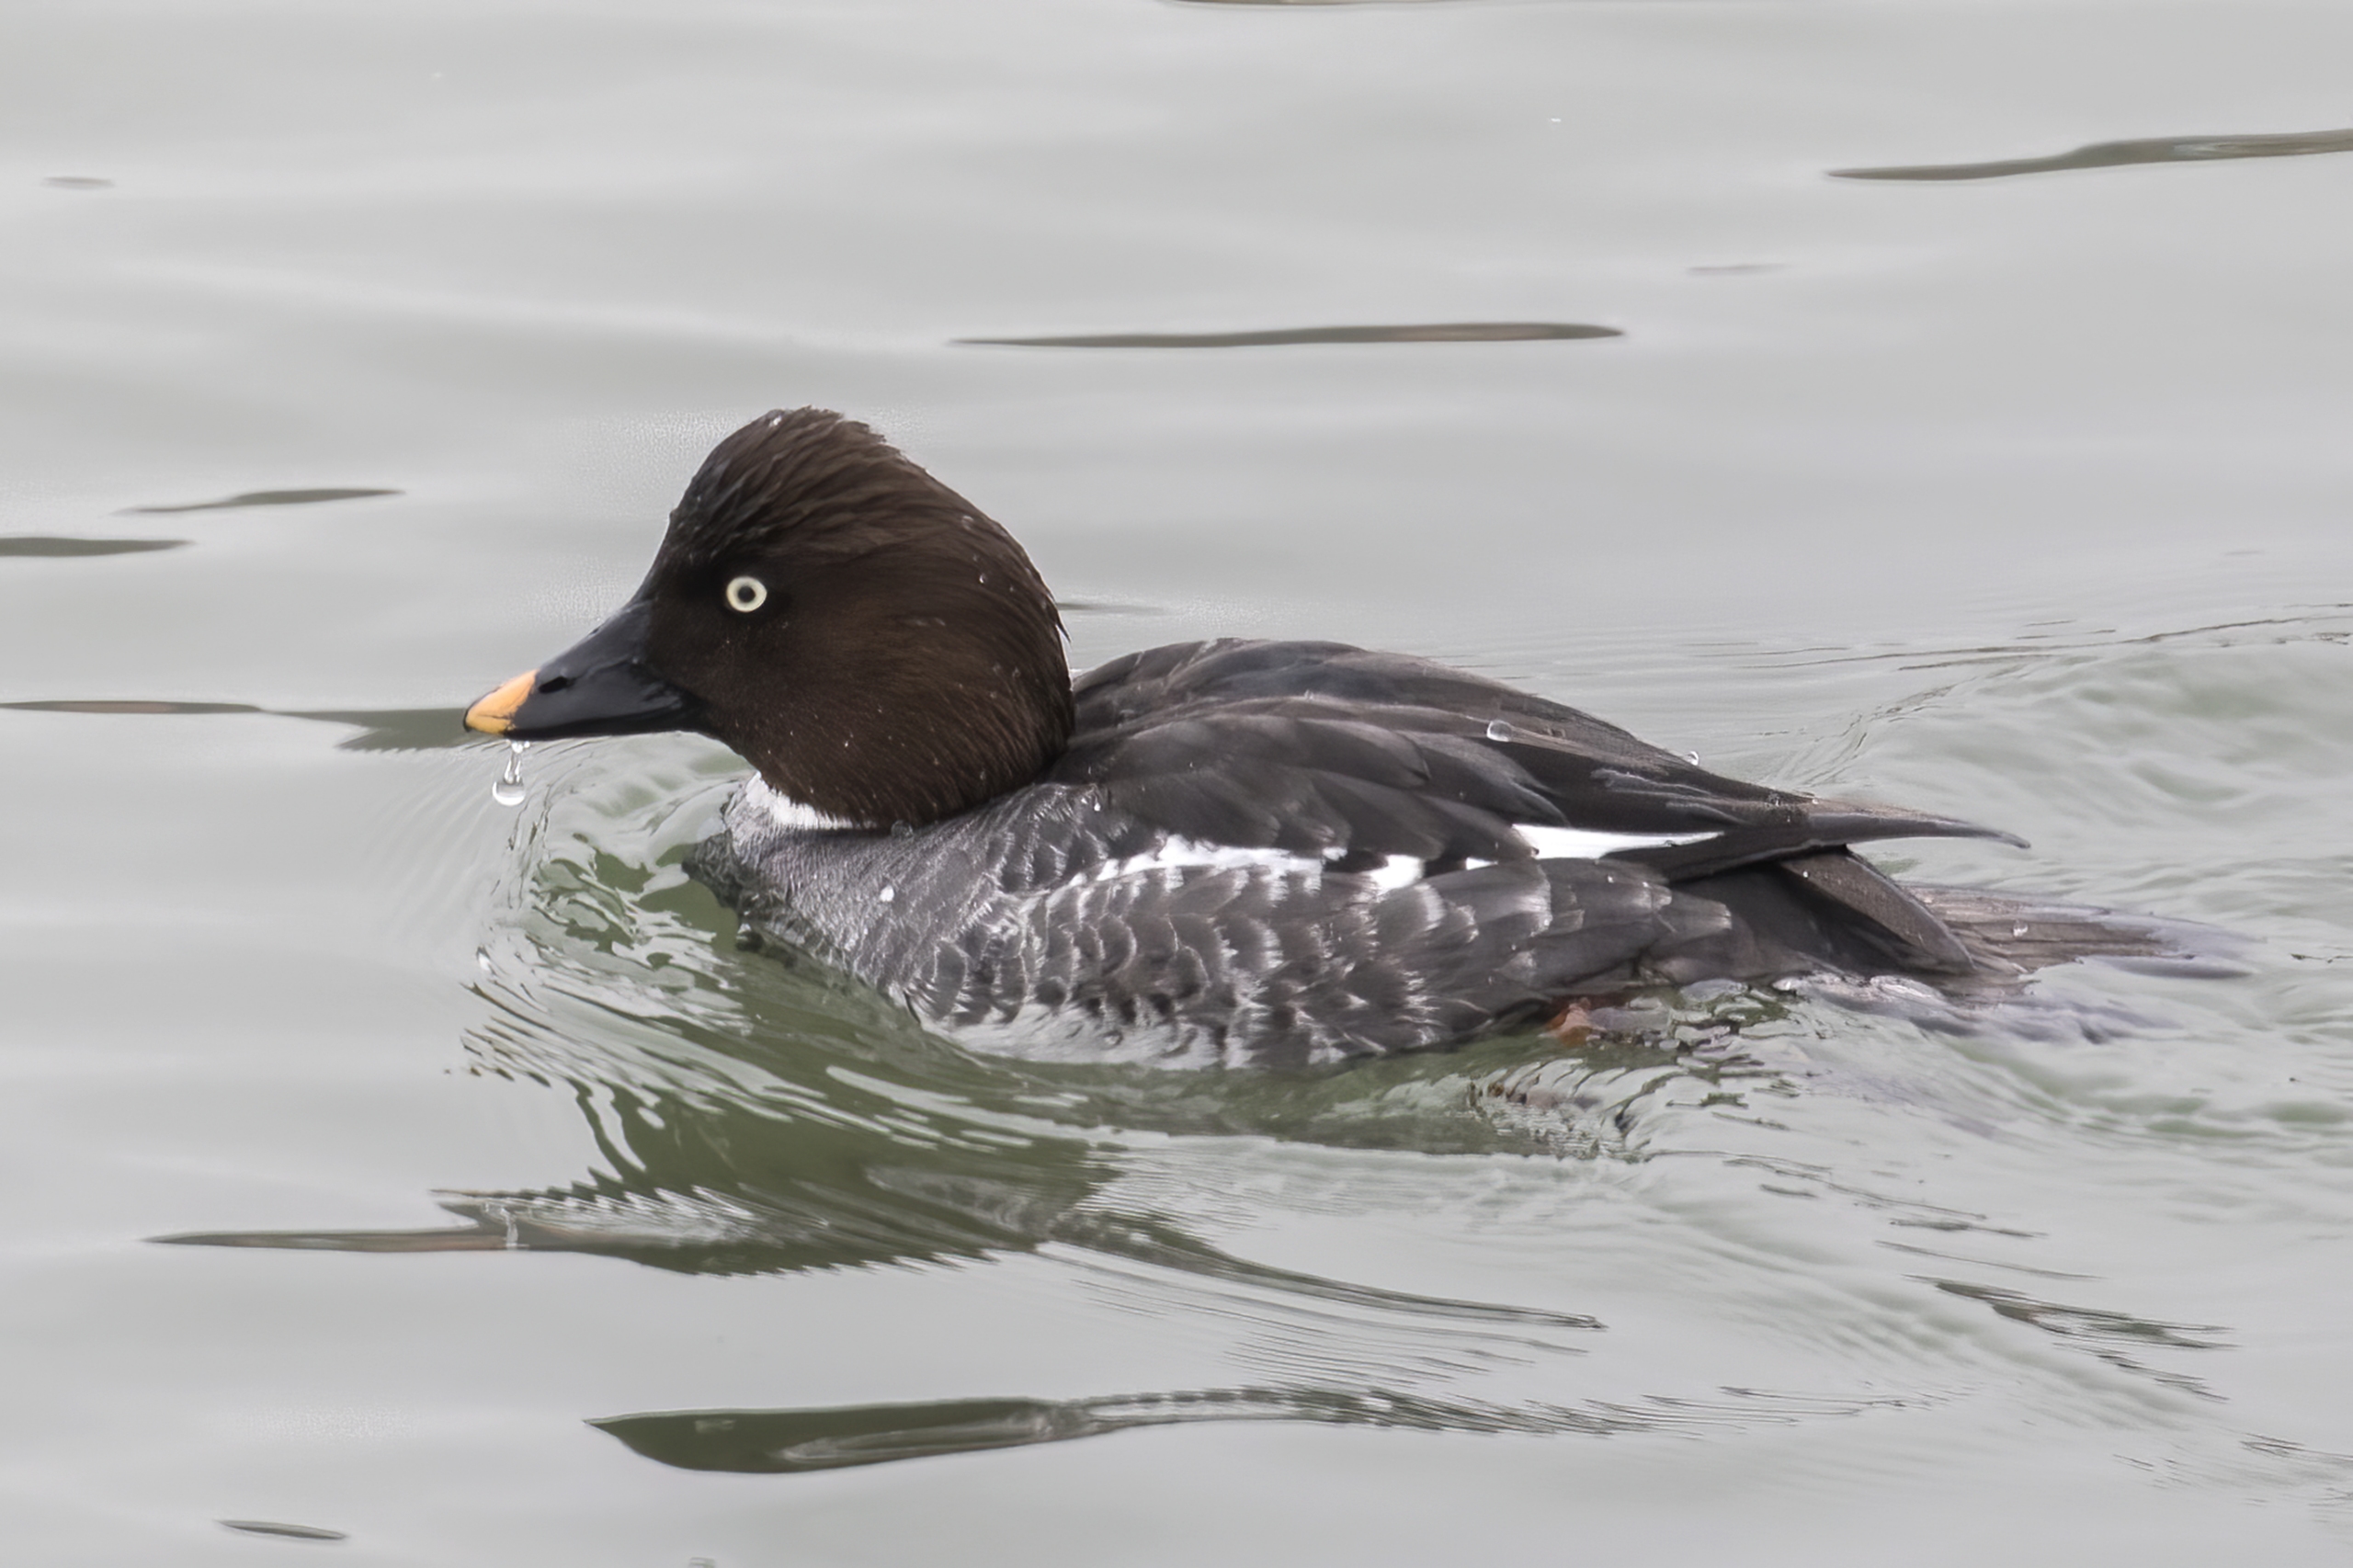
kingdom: Animalia
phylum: Chordata
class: Aves
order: Anseriformes
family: Anatidae
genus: Bucephala
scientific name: Bucephala clangula
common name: Hvinand
